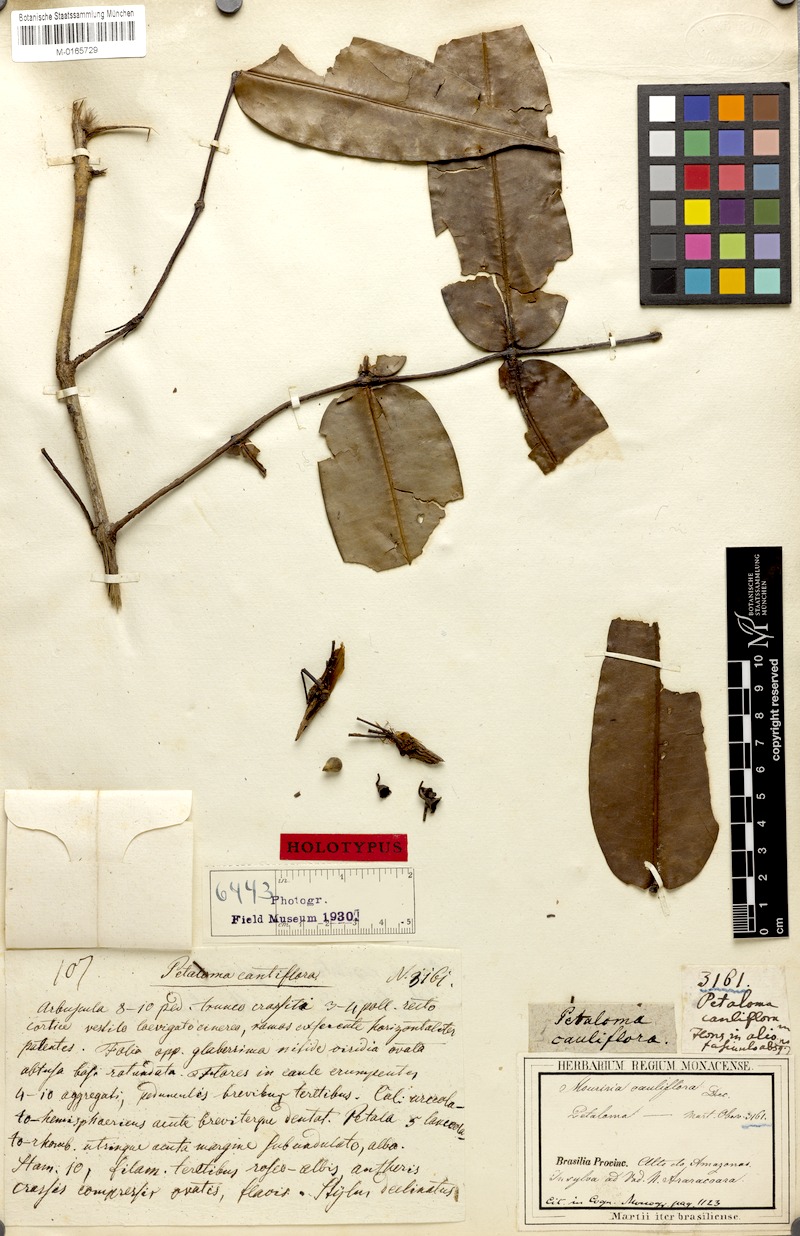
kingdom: Plantae
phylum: Tracheophyta
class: Magnoliopsida
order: Myrtales
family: Melastomataceae
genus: Mouriri
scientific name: Mouriri cauliflora
